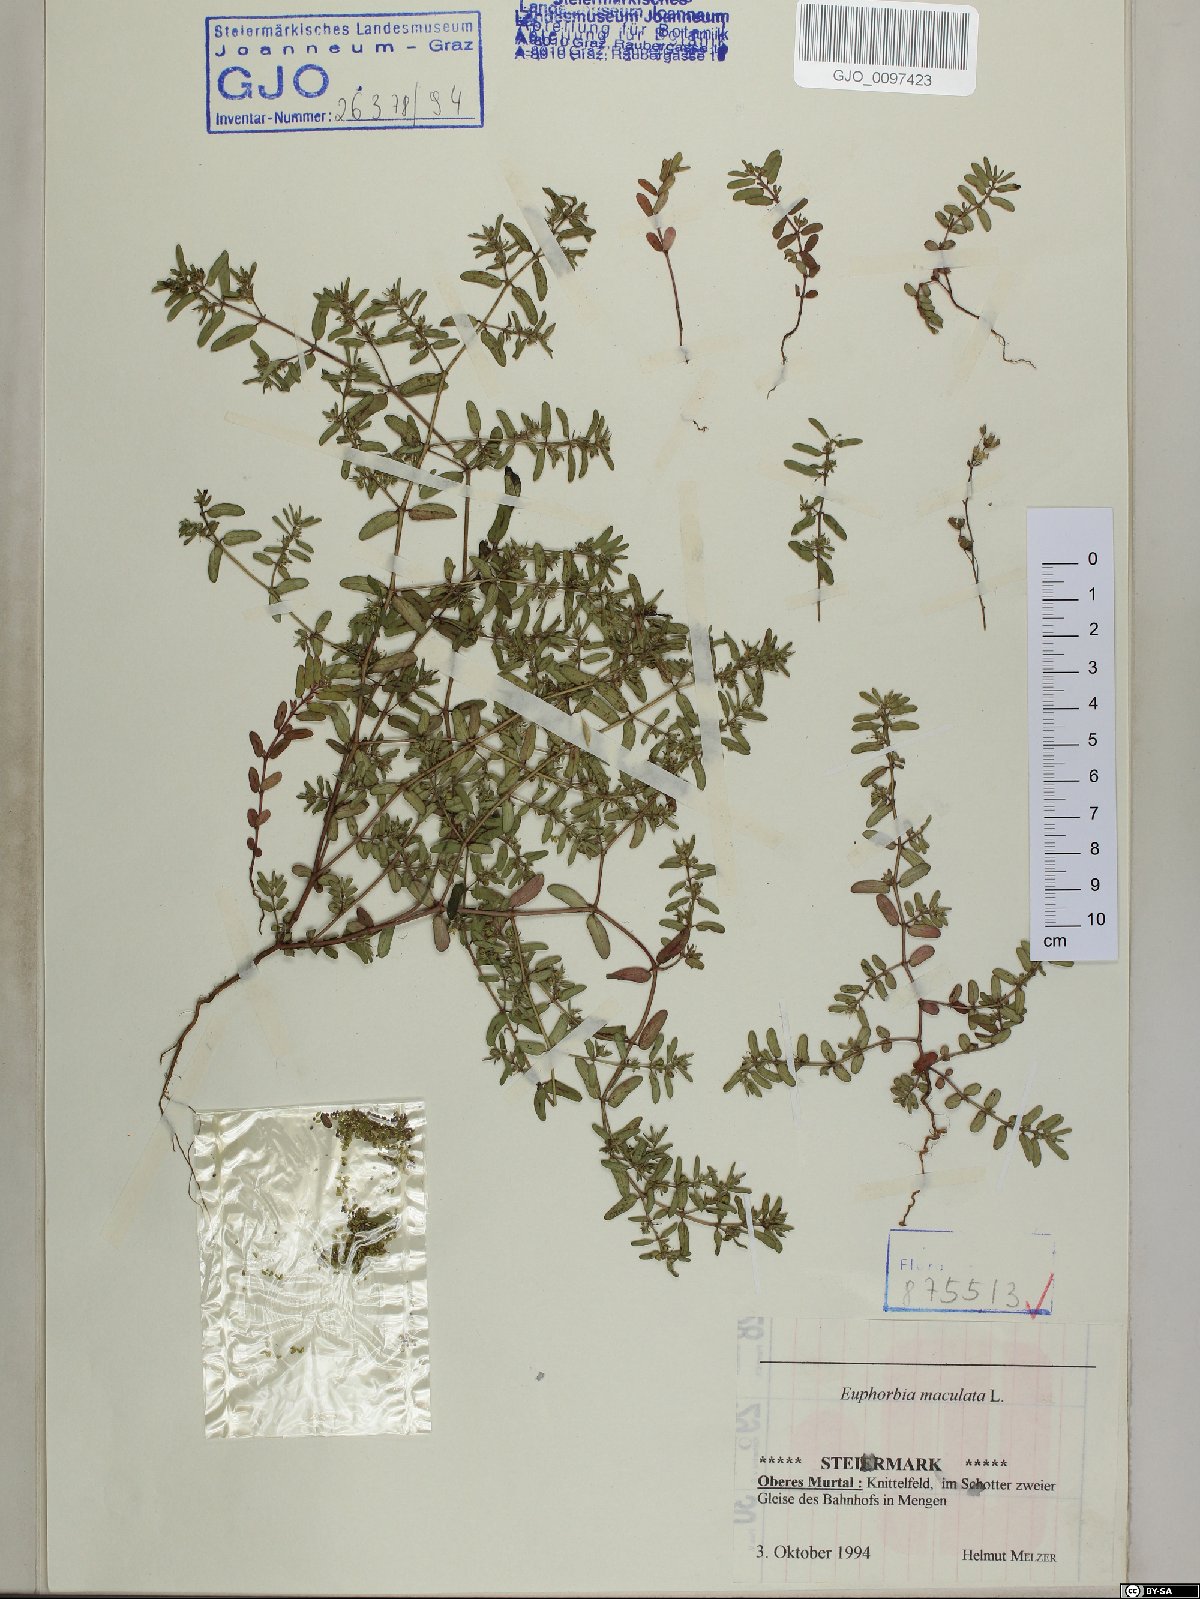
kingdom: Plantae
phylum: Tracheophyta
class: Magnoliopsida
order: Malpighiales
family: Euphorbiaceae
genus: Euphorbia
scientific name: Euphorbia maculata
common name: Spotted spurge
